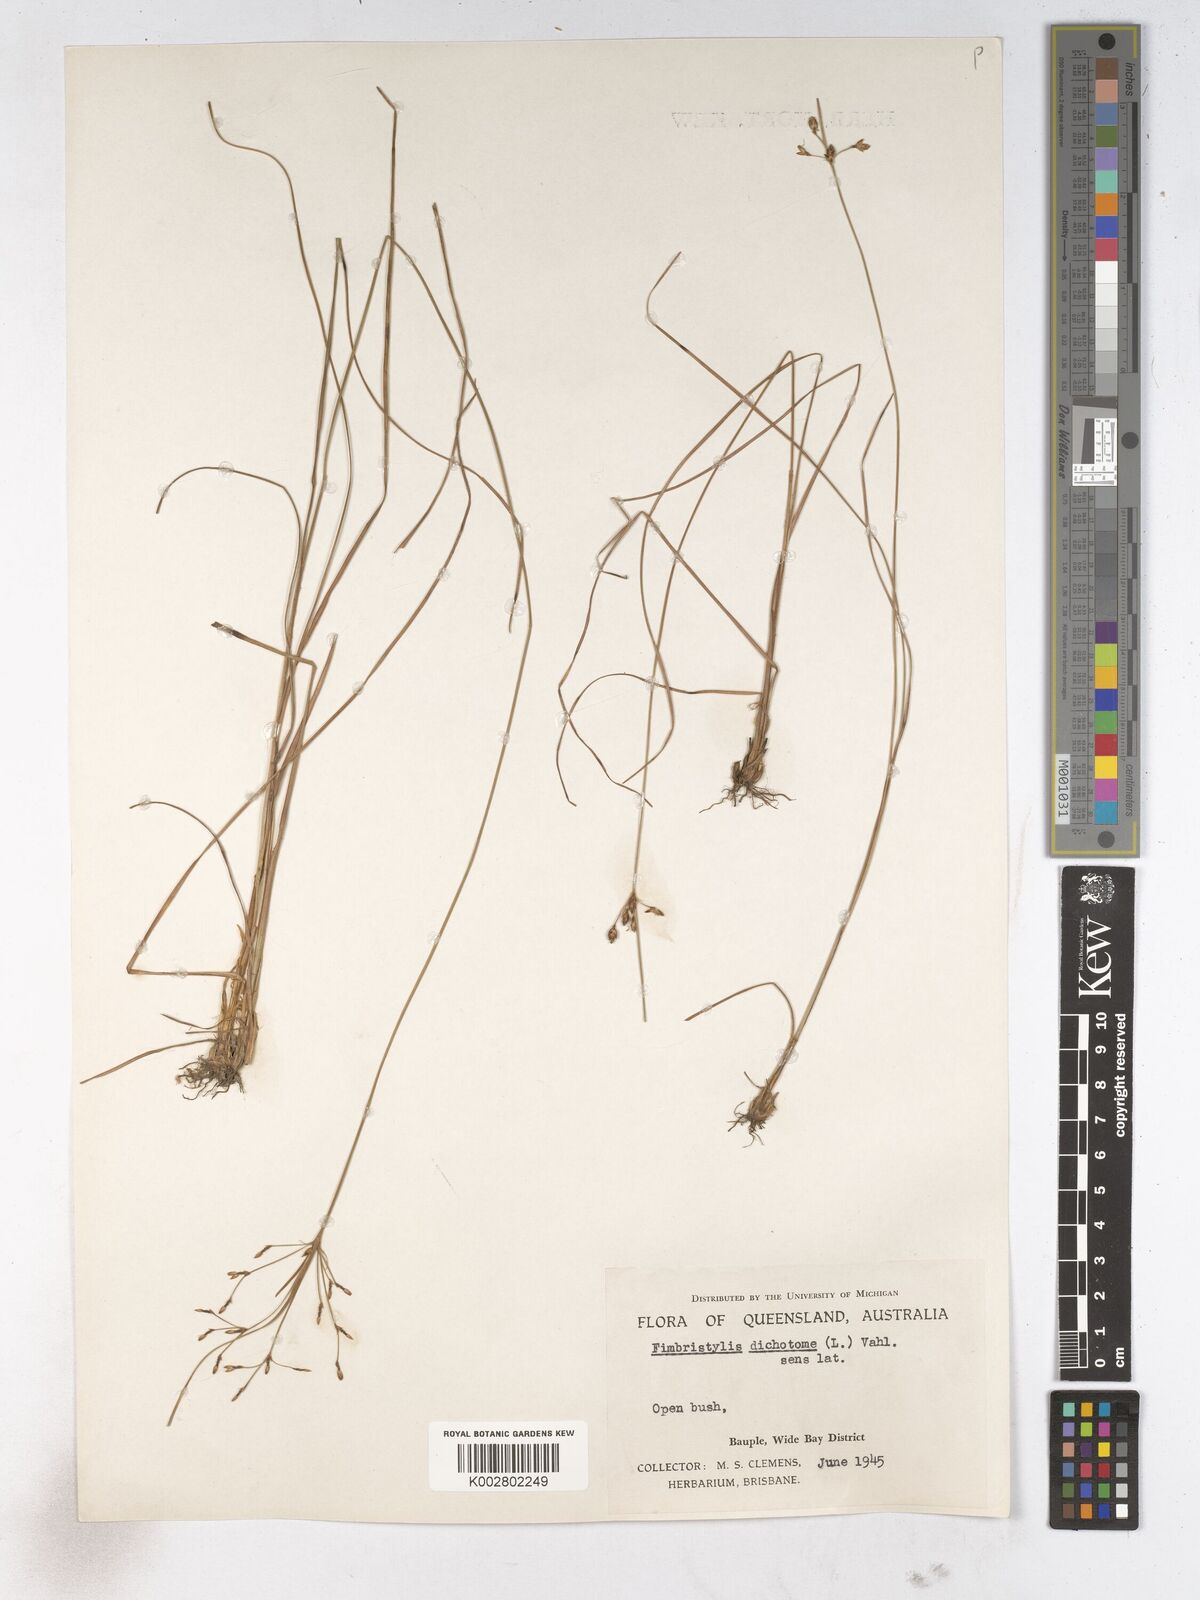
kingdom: Plantae
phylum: Tracheophyta
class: Liliopsida
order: Poales
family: Cyperaceae
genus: Fimbristylis
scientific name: Fimbristylis dichotoma
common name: Forked fimbry
